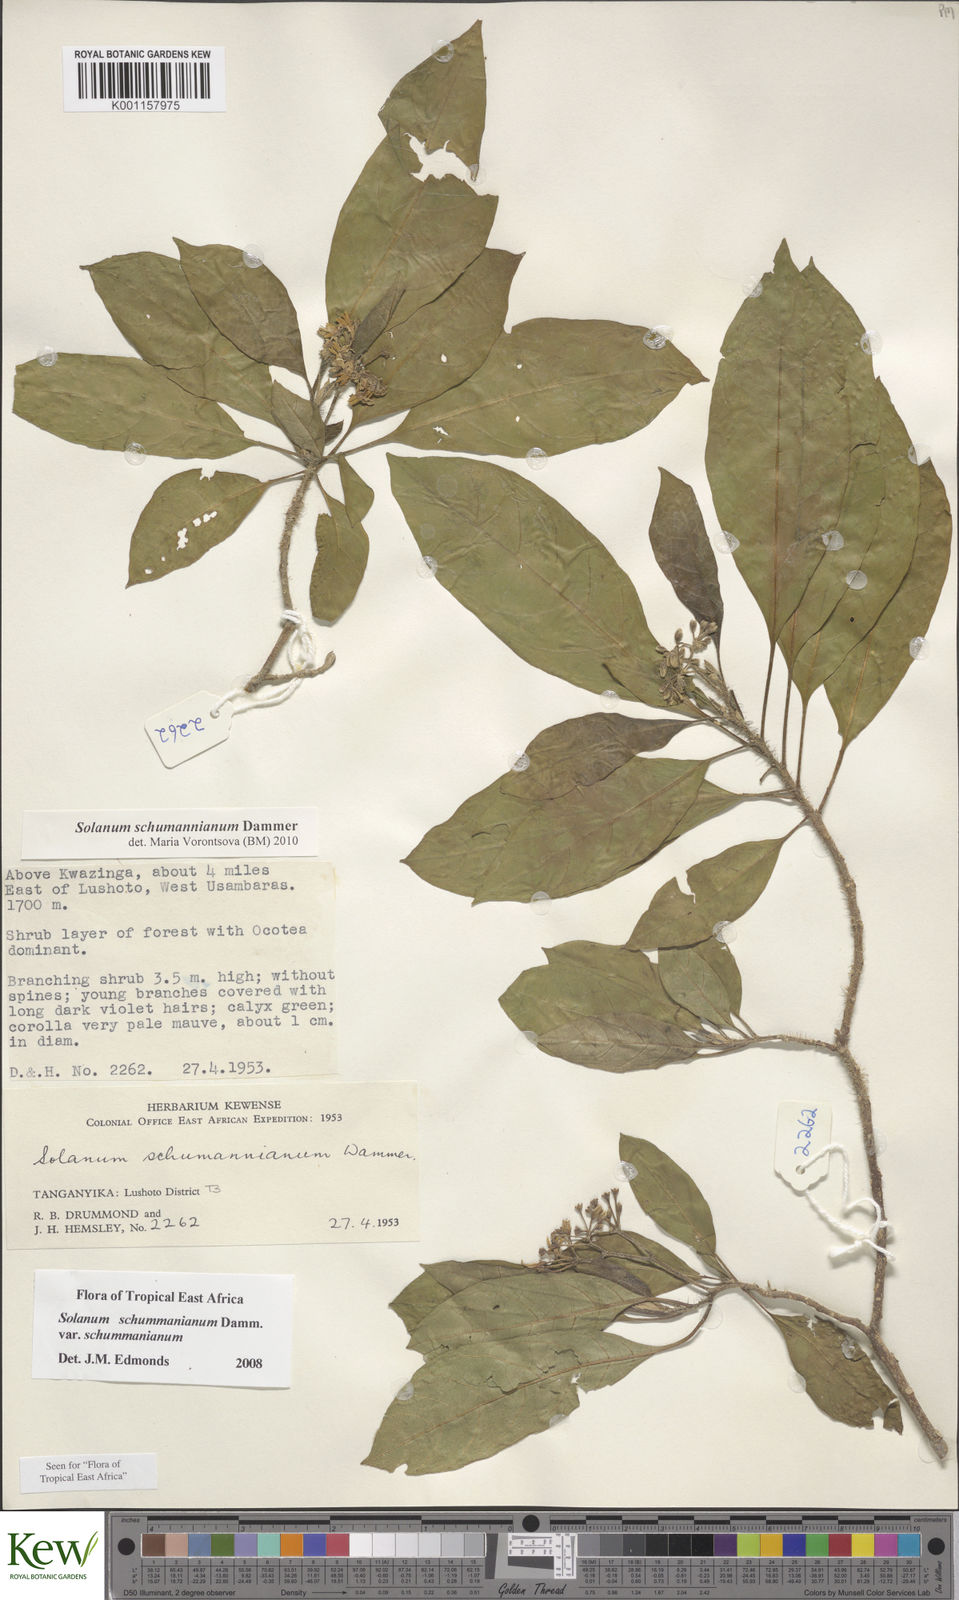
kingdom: Plantae
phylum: Tracheophyta
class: Magnoliopsida
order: Solanales
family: Solanaceae
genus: Solanum
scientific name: Solanum schumannianum
